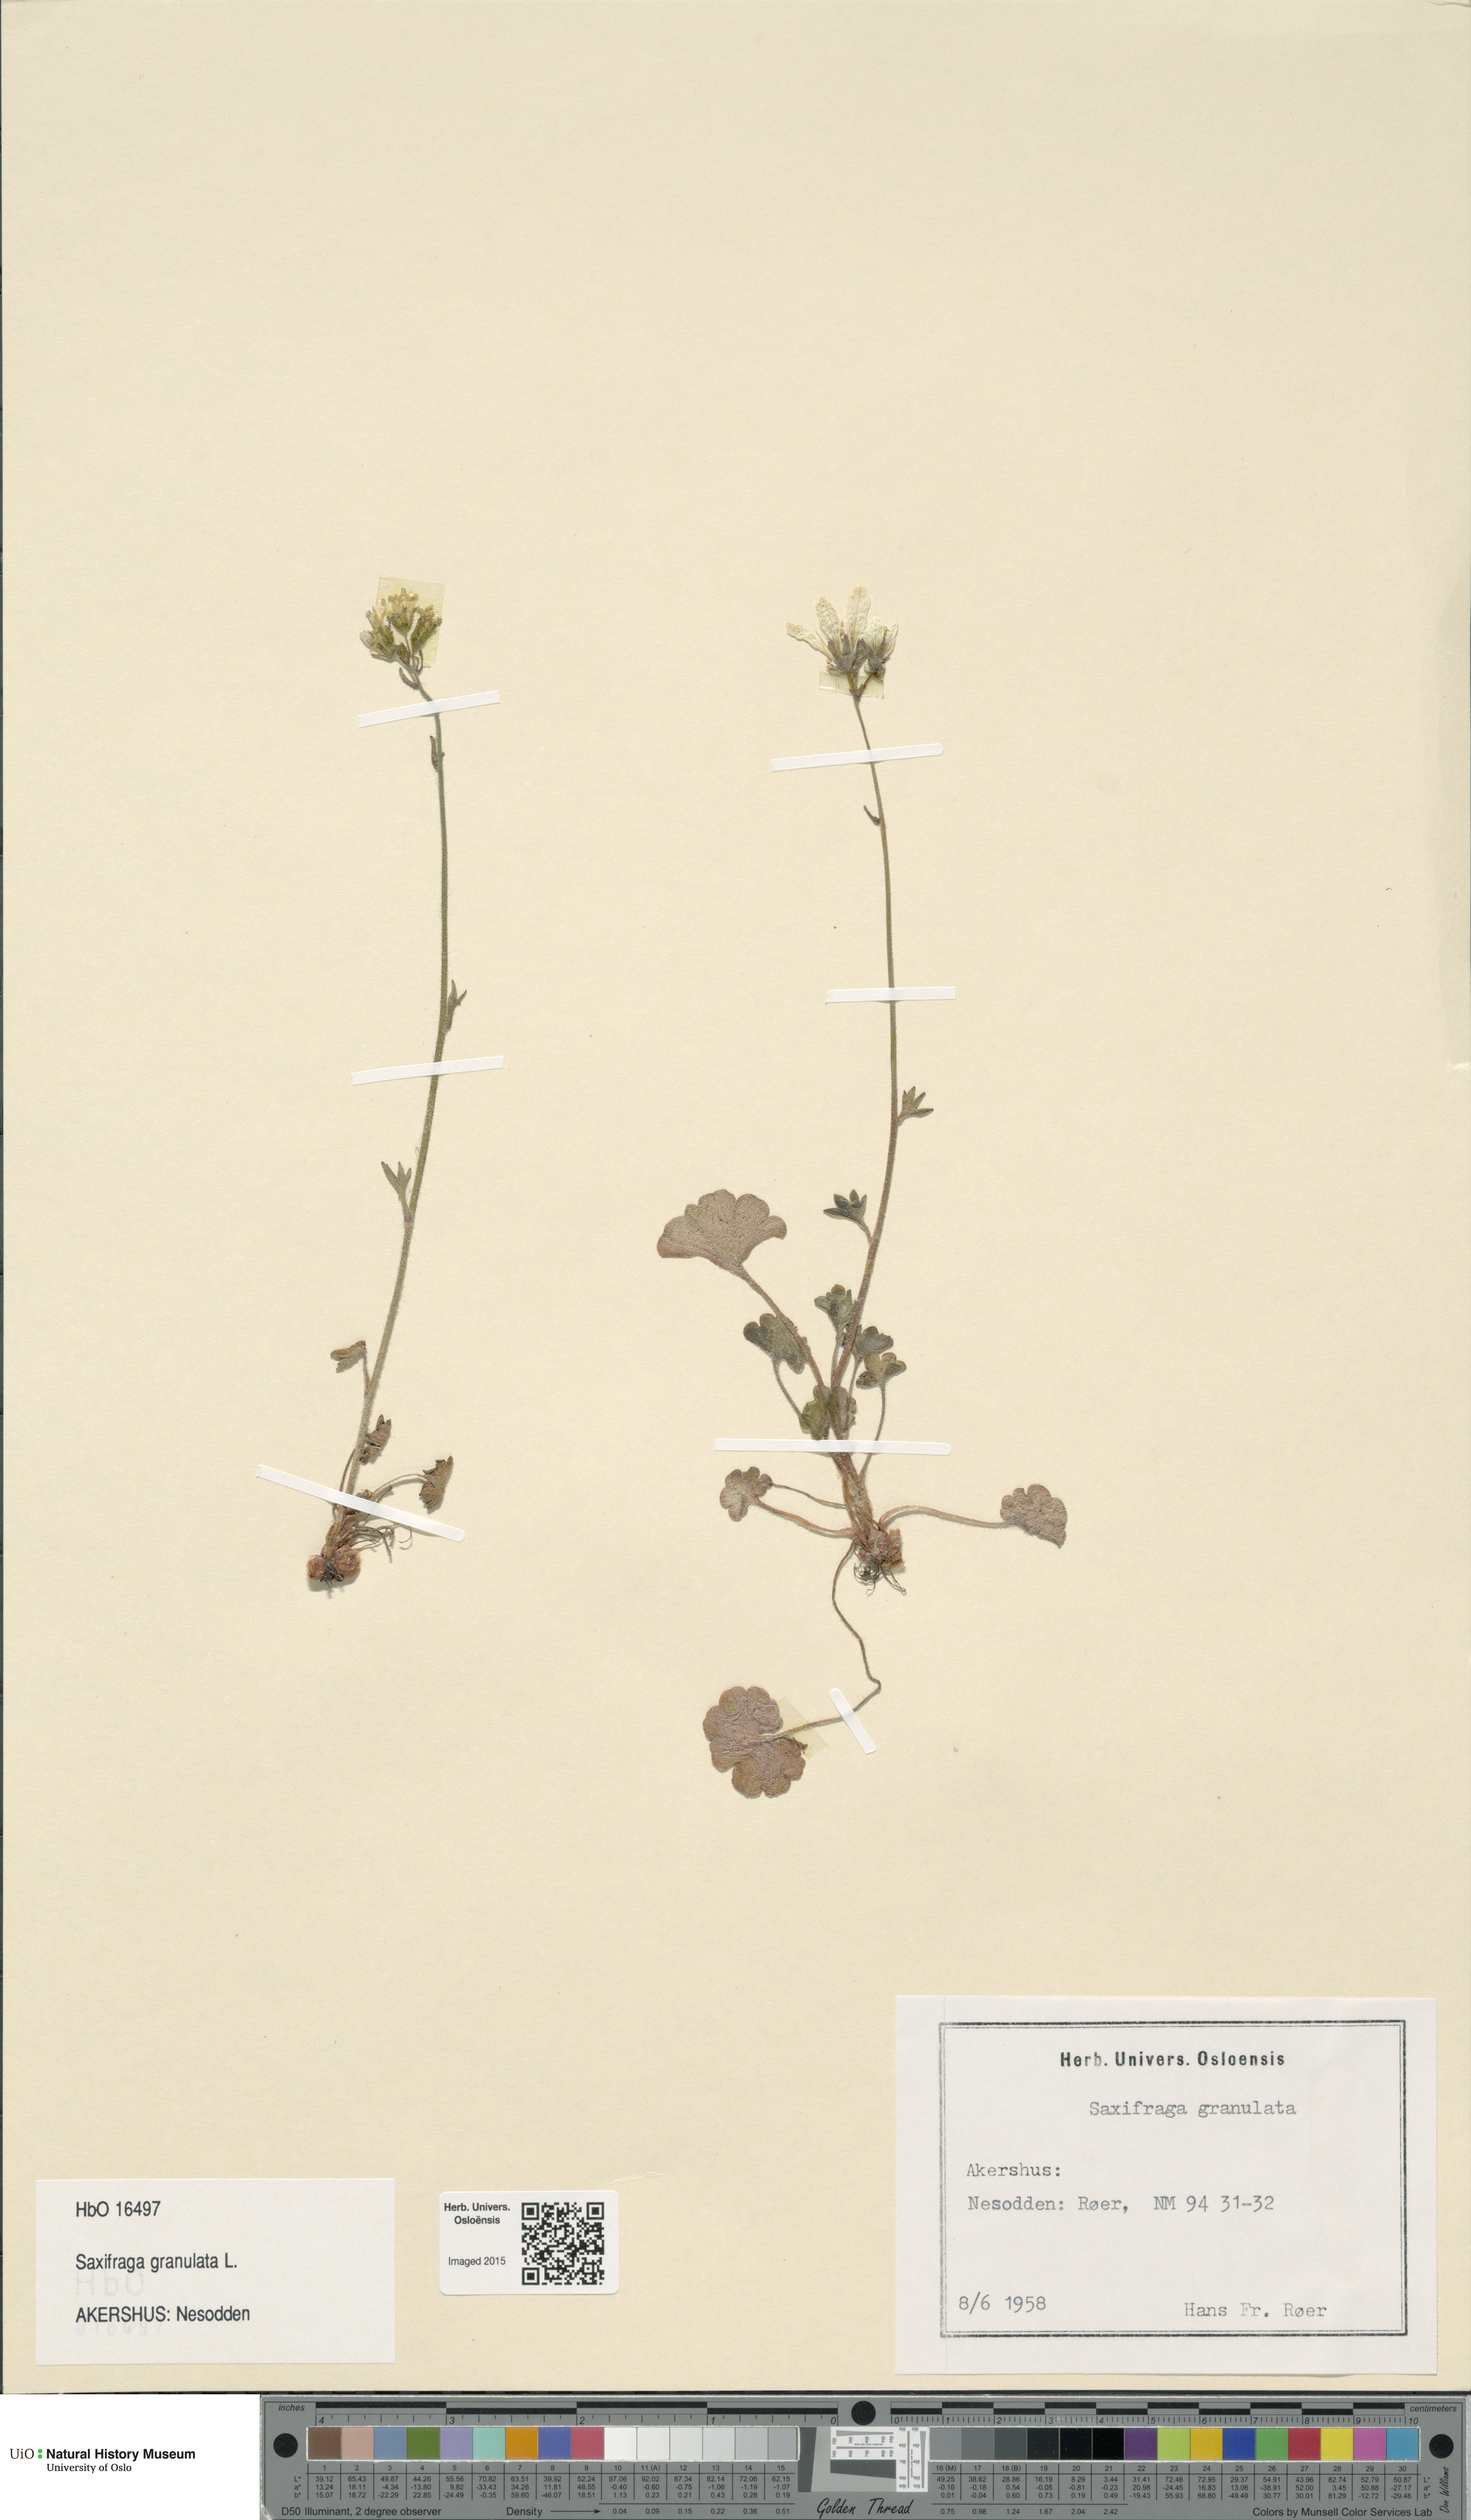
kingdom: Plantae
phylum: Tracheophyta
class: Magnoliopsida
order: Saxifragales
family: Saxifragaceae
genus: Saxifraga
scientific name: Saxifraga granulata
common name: Meadow saxifrage
